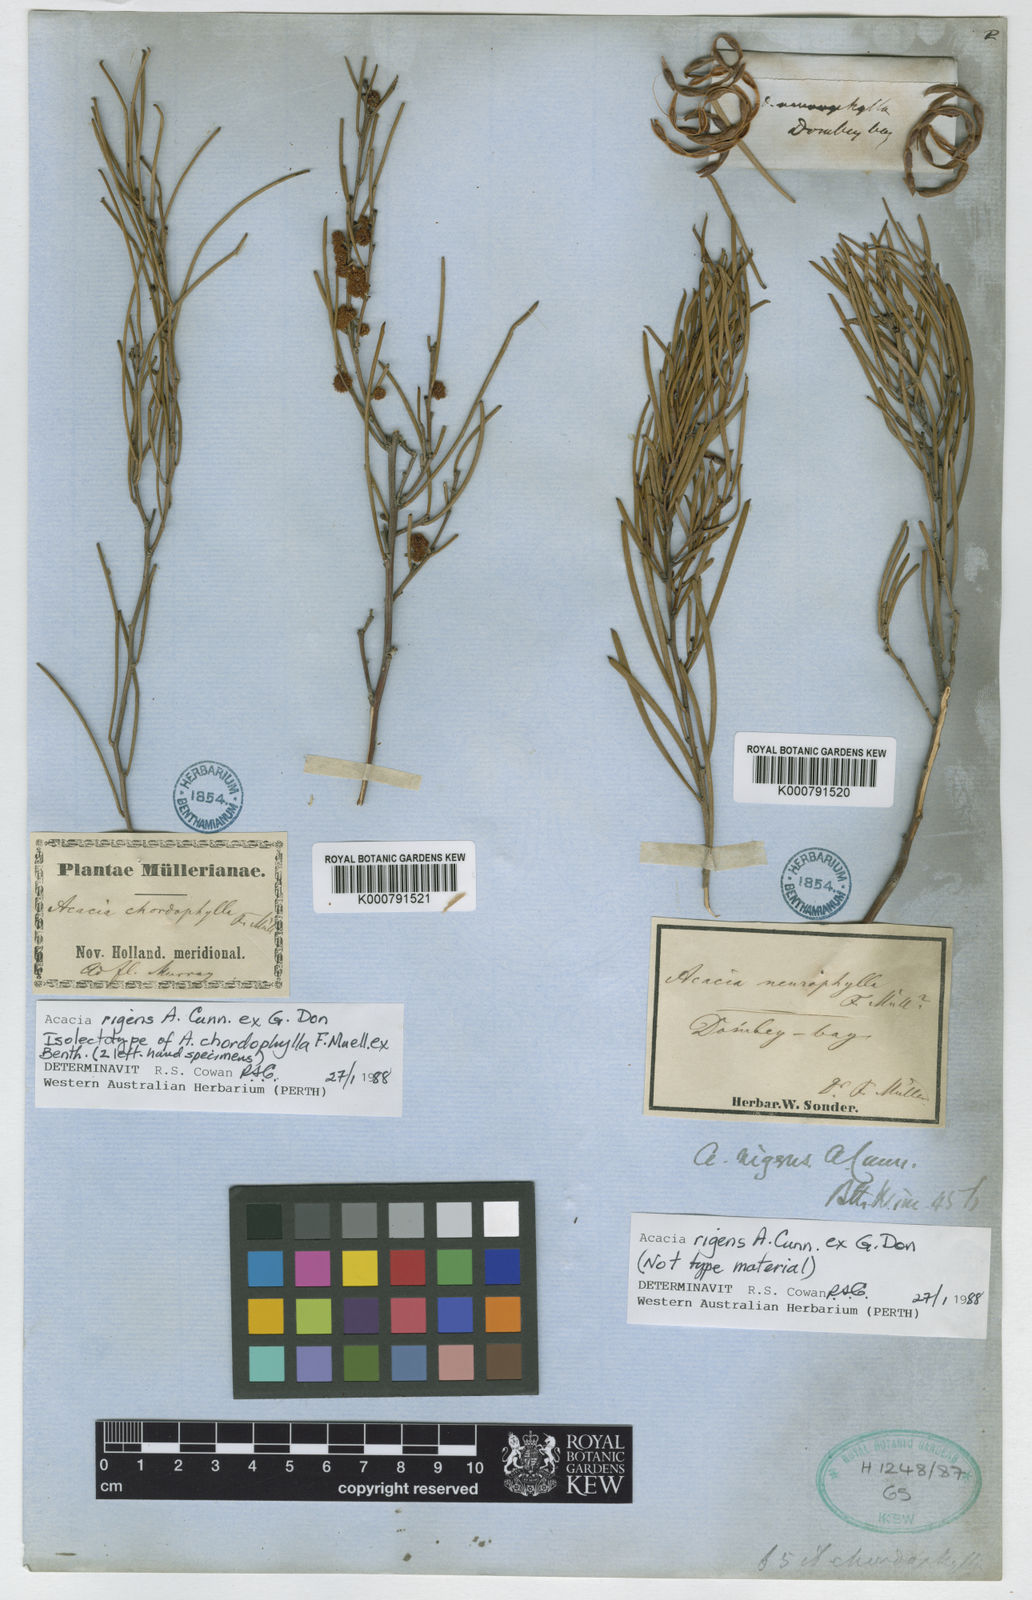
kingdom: Plantae
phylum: Tracheophyta
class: Magnoliopsida
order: Fabales
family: Fabaceae
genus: Acacia
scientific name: Acacia rigens
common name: Nealie
